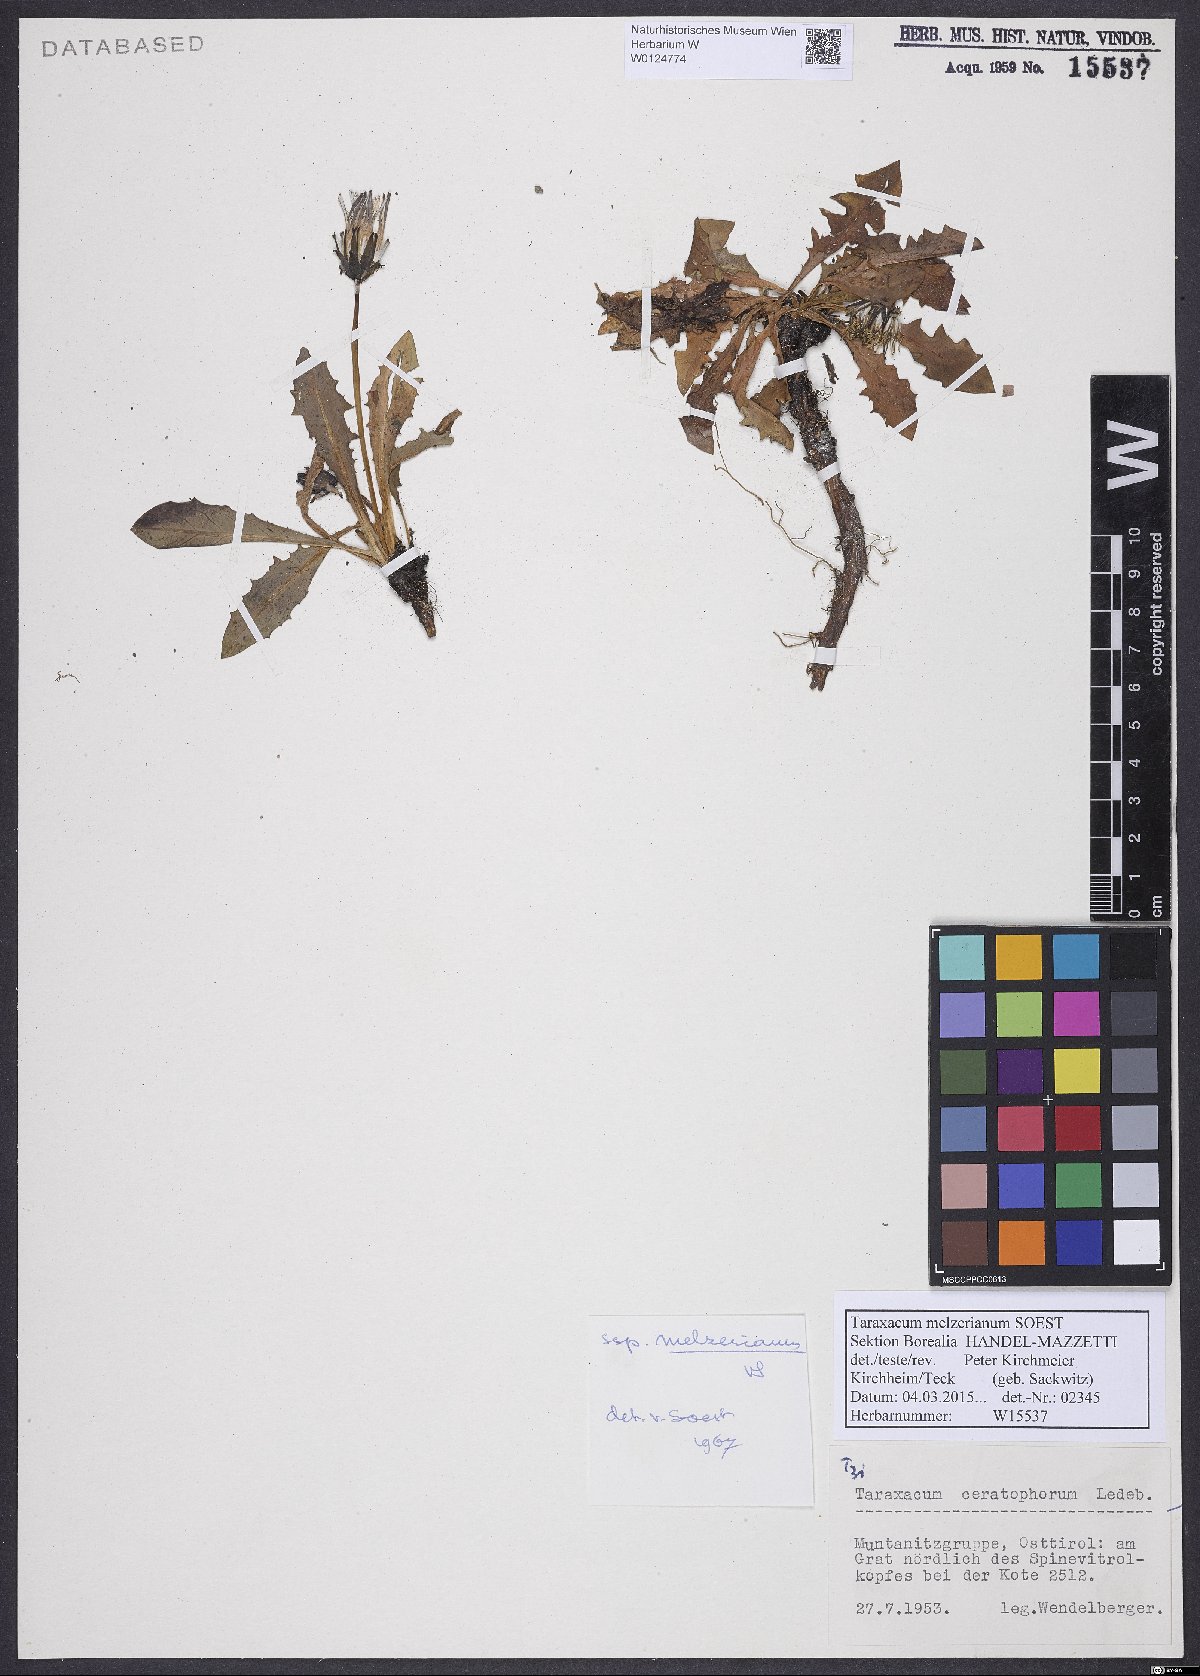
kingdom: Plantae
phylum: Tracheophyta
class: Magnoliopsida
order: Asterales
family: Asteraceae
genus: Taraxacum
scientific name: Taraxacum melzerianum
